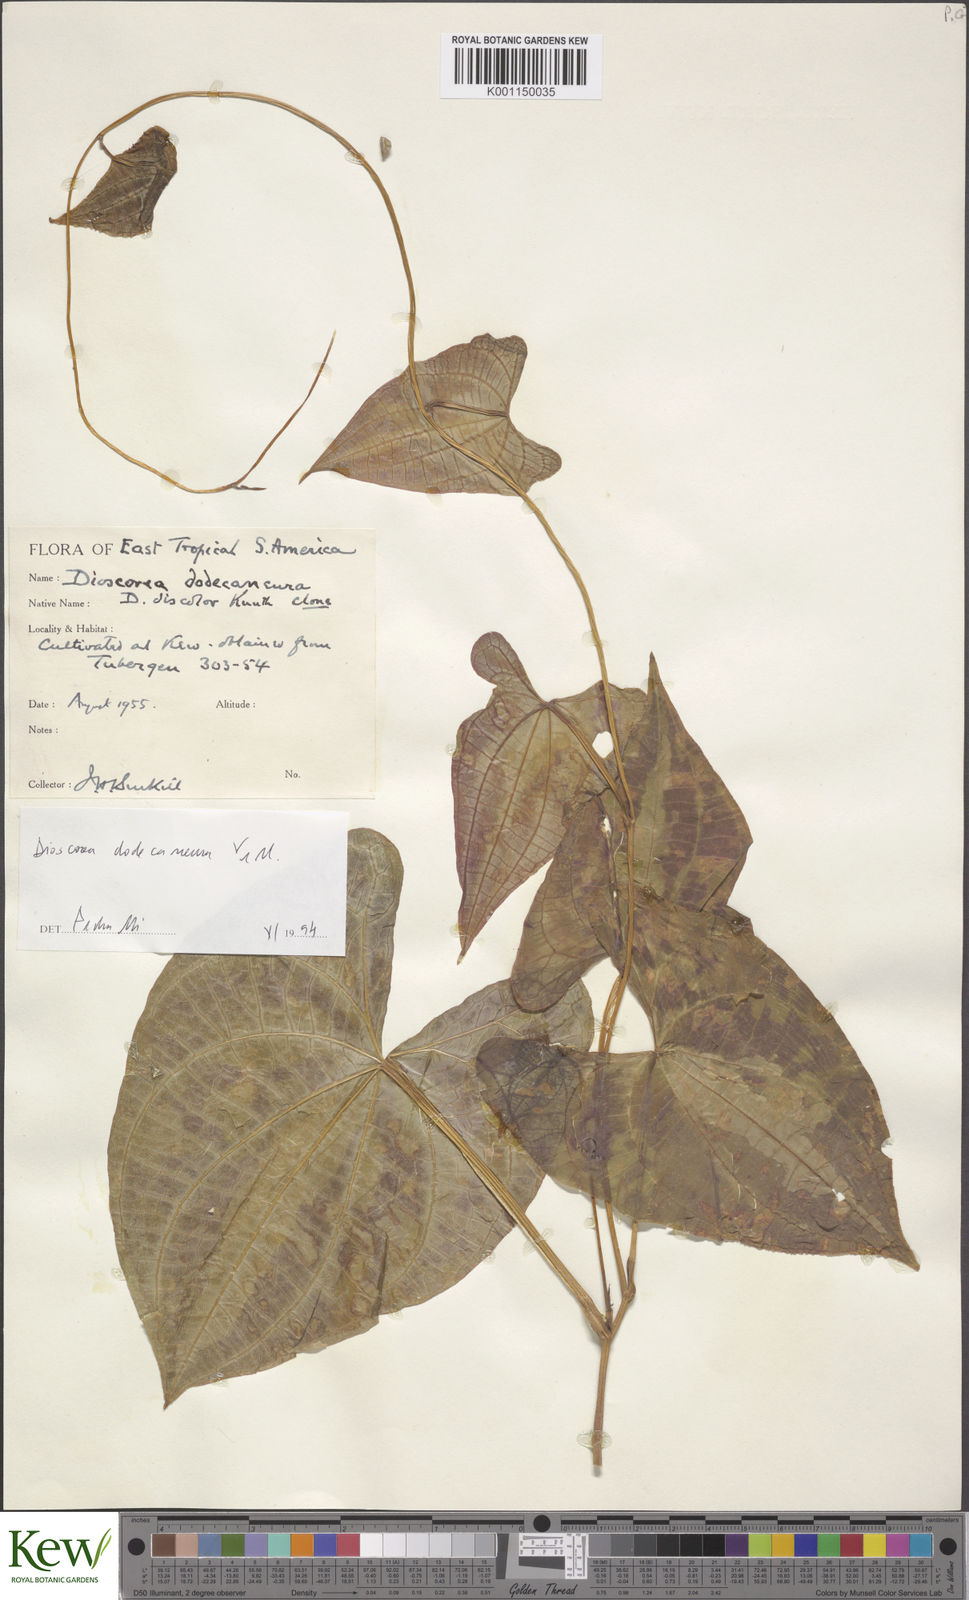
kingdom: Plantae
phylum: Tracheophyta
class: Liliopsida
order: Dioscoreales
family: Dioscoreaceae
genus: Dioscorea
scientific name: Dioscorea dodecaneura
